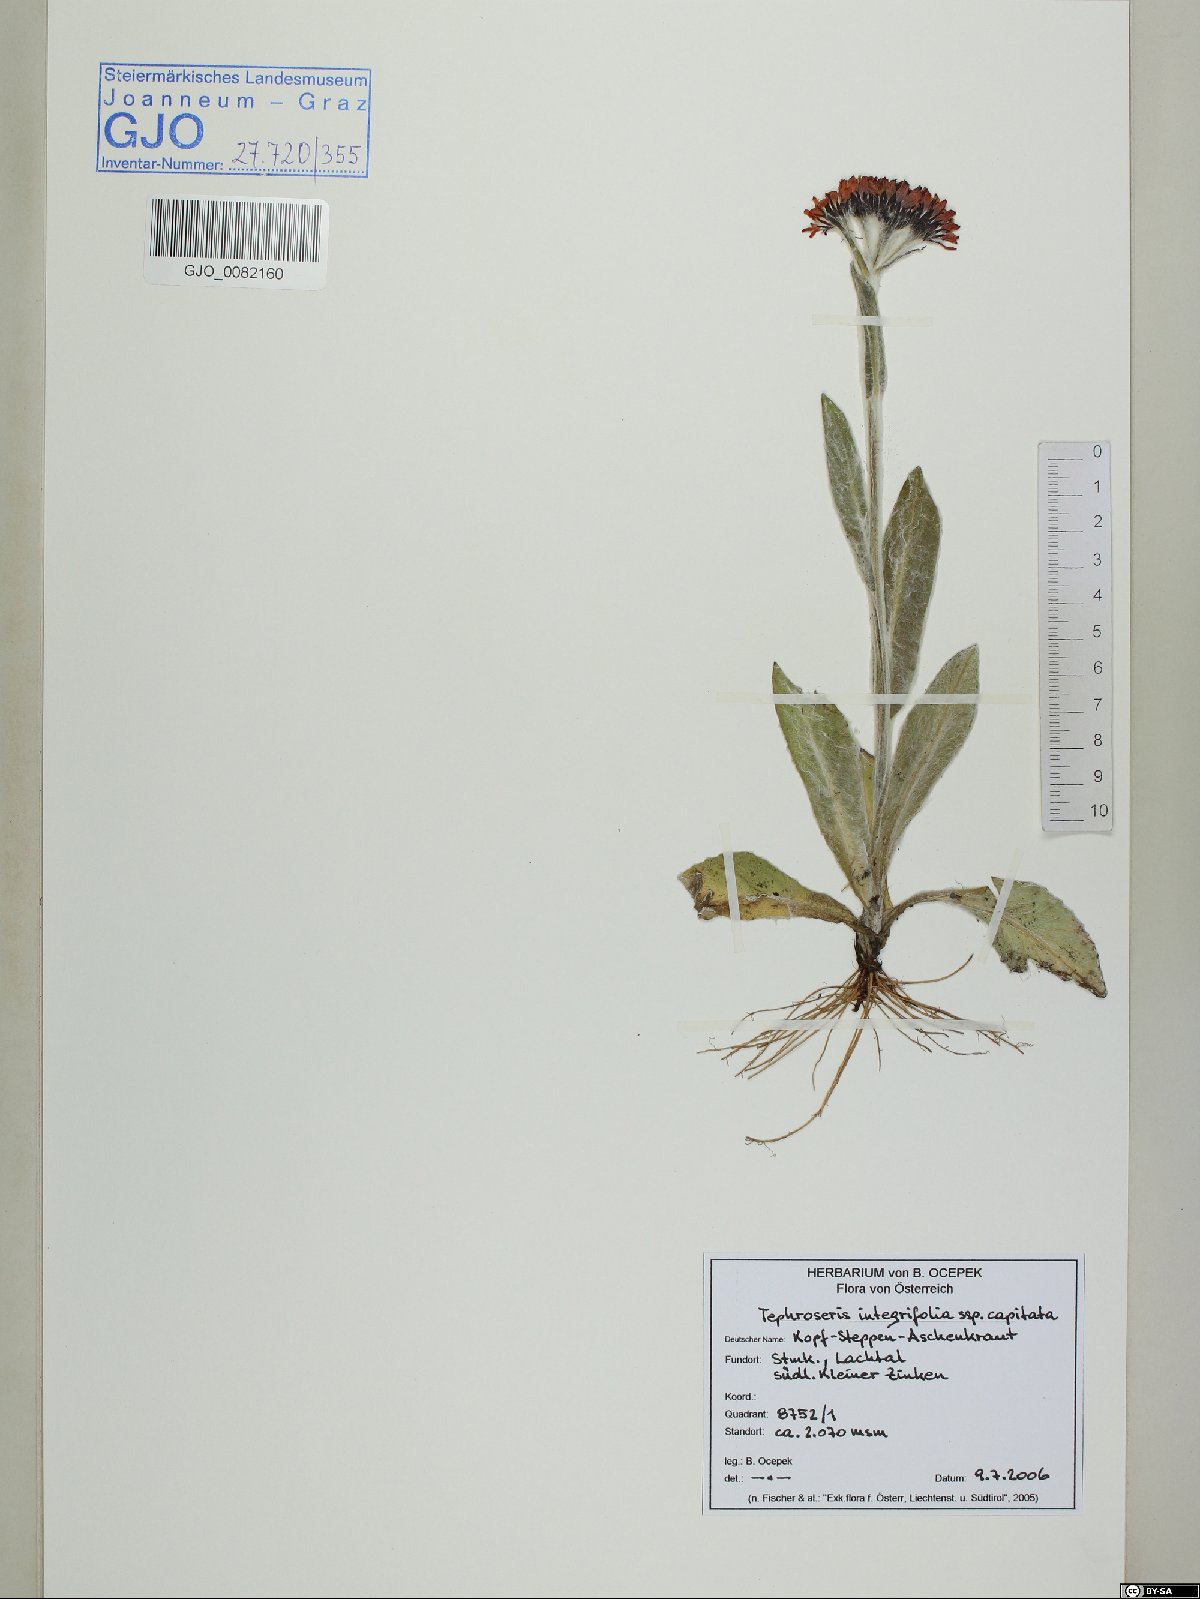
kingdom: Plantae
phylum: Tracheophyta
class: Magnoliopsida
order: Asterales
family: Asteraceae
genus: Tephroseris
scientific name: Tephroseris integrifolia
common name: Field fleawort
